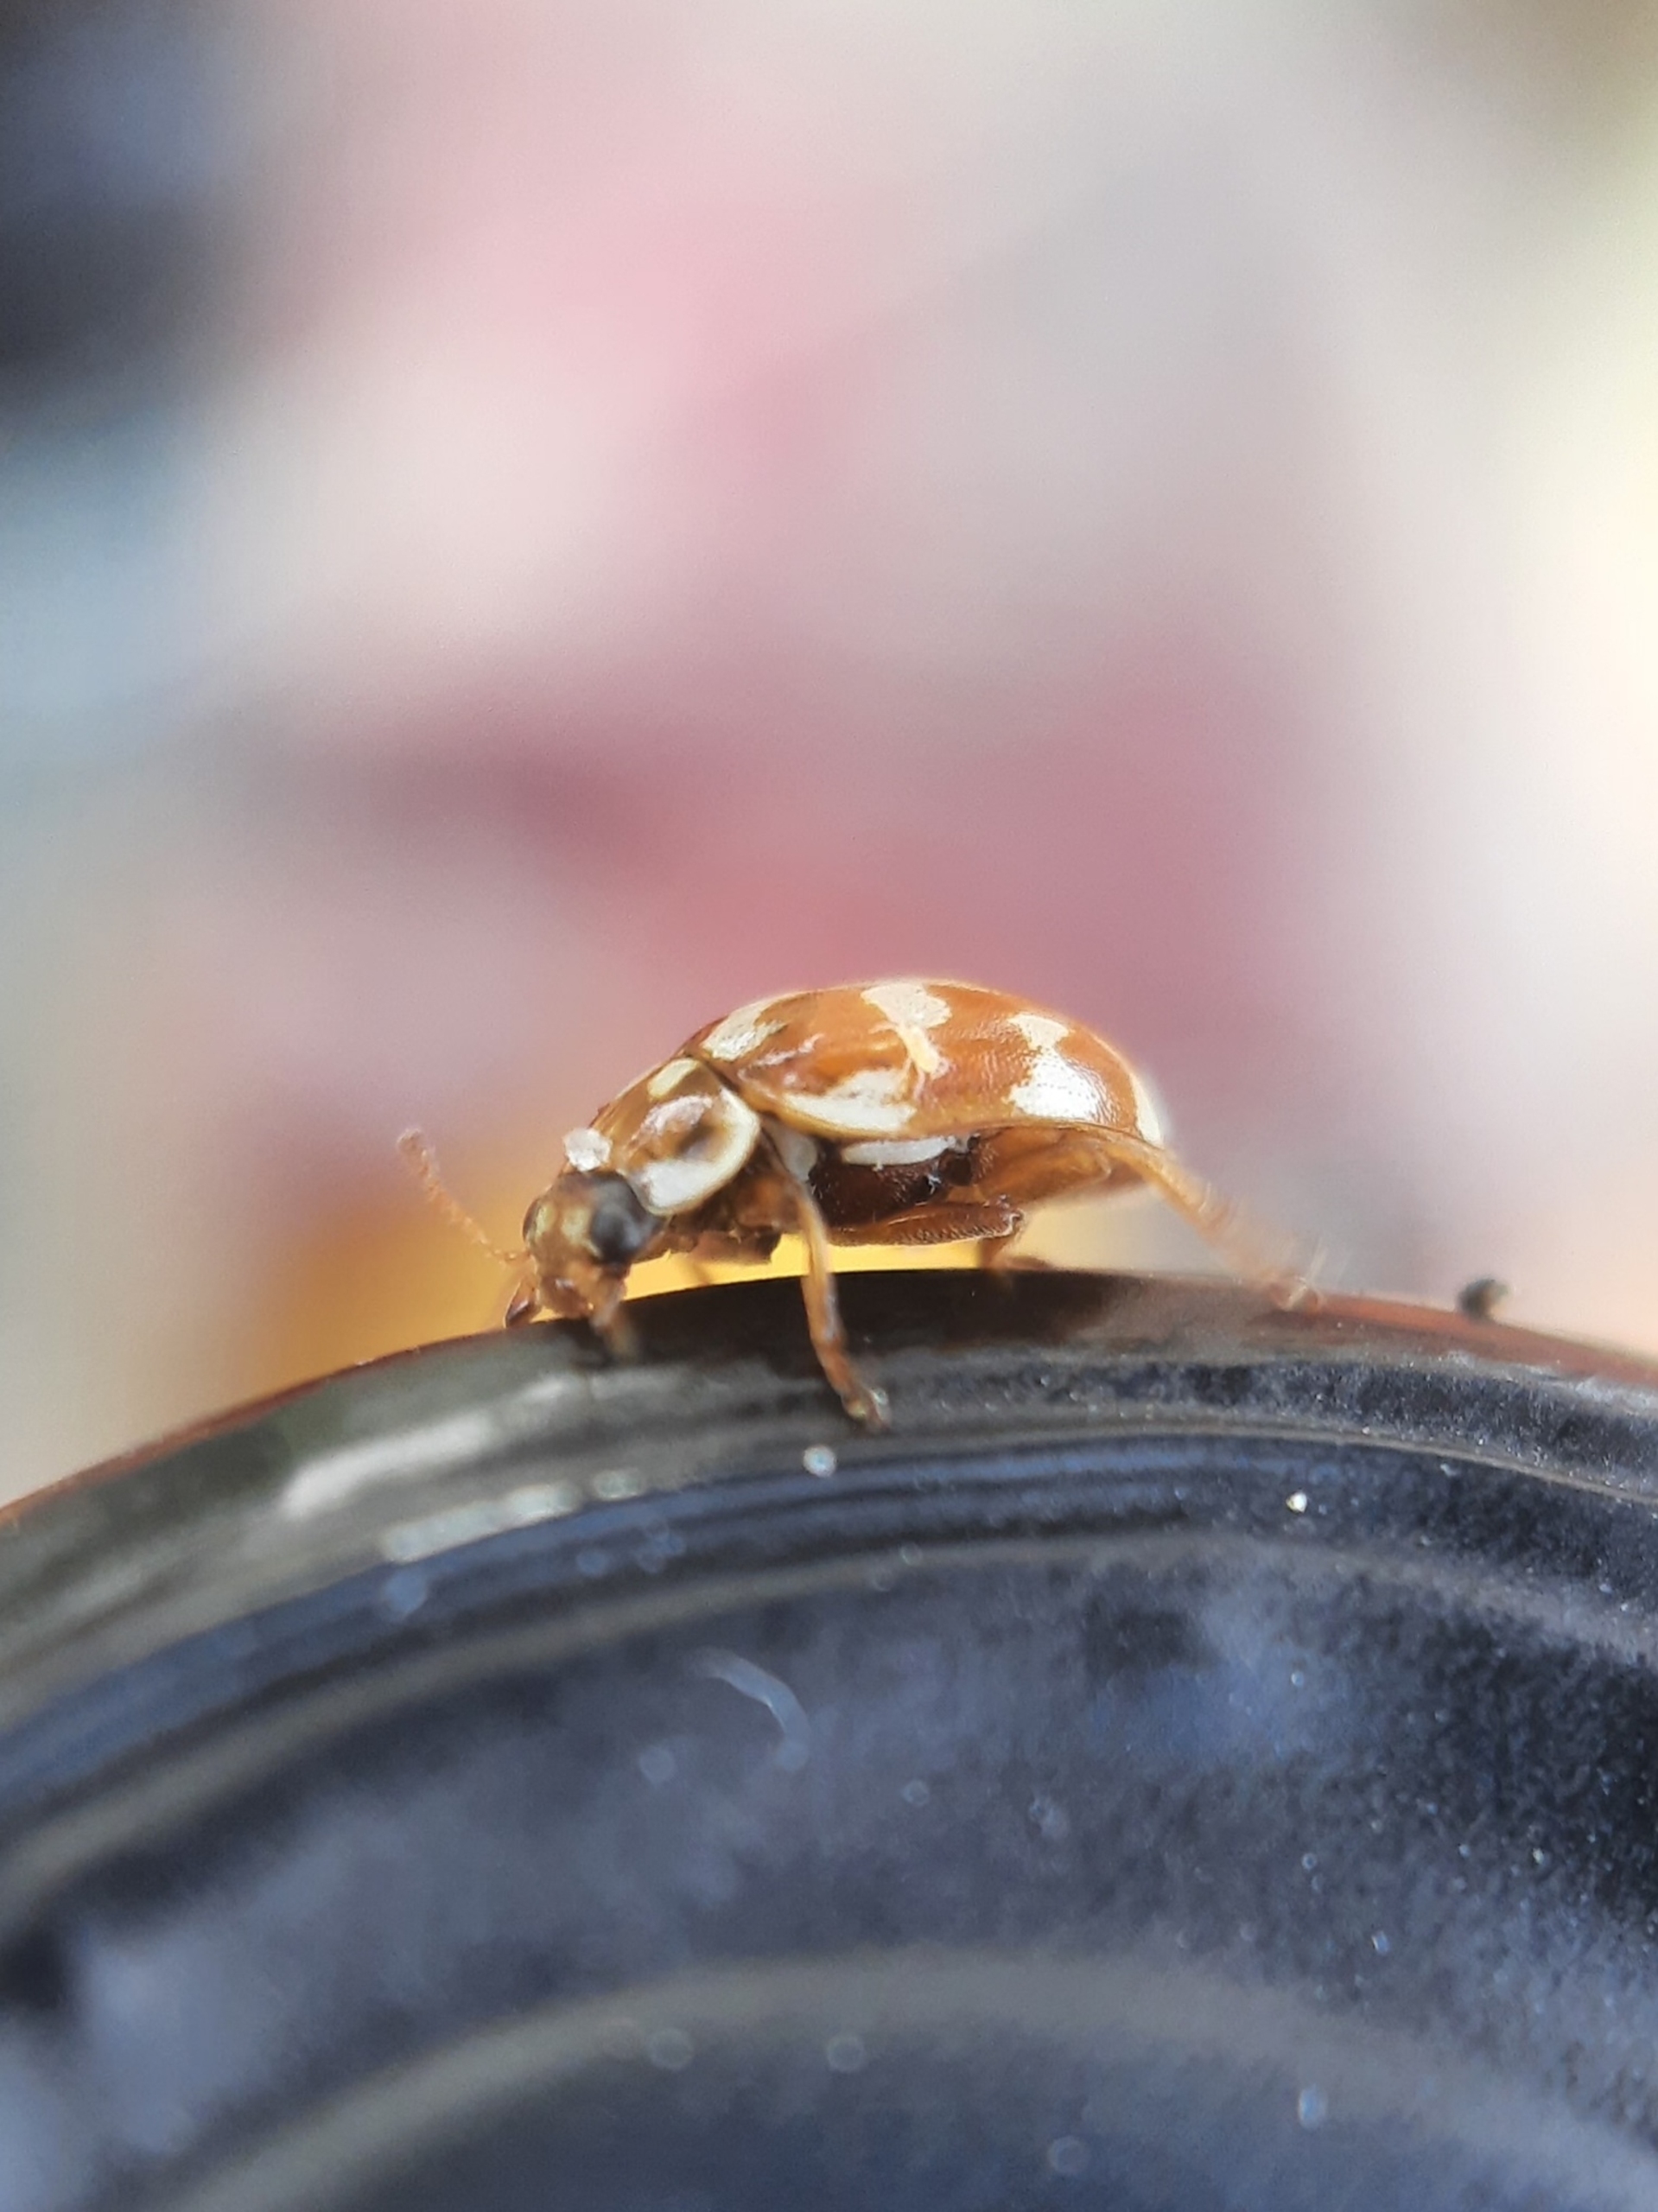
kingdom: Animalia
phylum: Arthropoda
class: Insecta
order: Coleoptera
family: Coccinellidae
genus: Myrrha
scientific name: Myrrha octodecimguttata
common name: Attenplettet mariehøne
